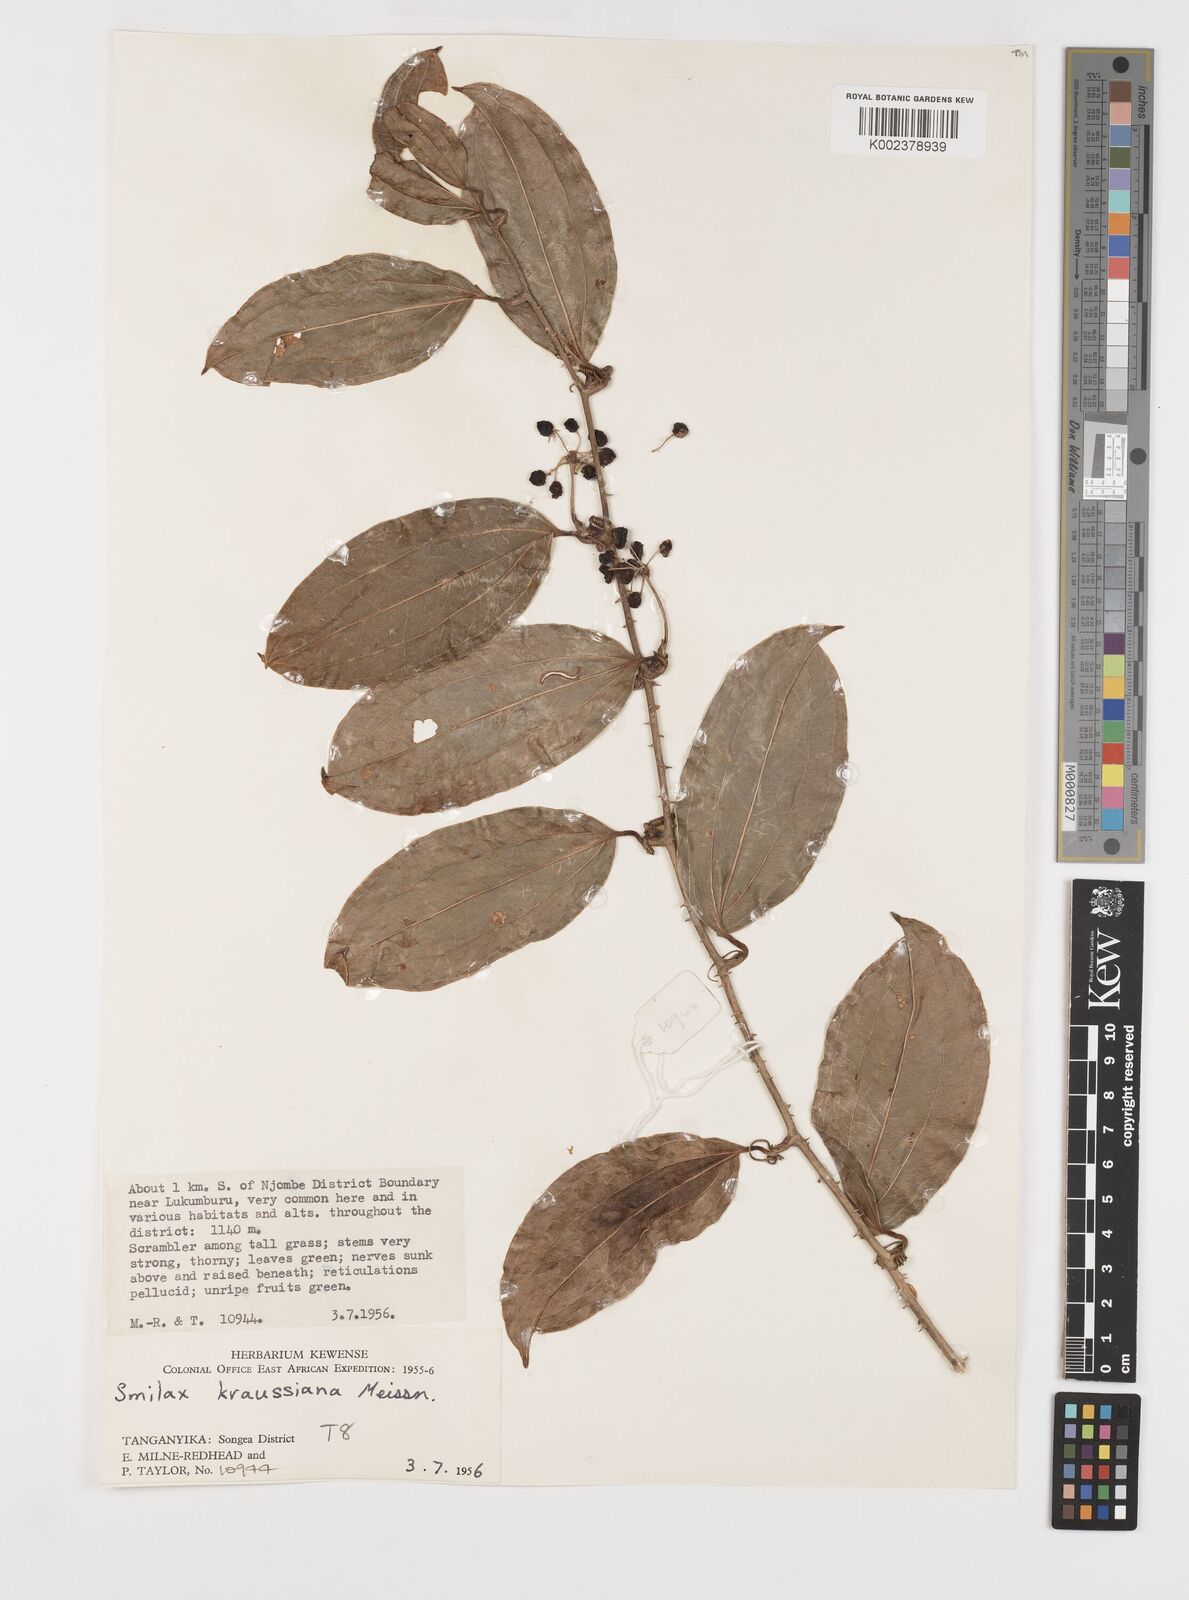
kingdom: Plantae
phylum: Tracheophyta
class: Liliopsida
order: Liliales
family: Smilacaceae
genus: Smilax
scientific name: Smilax anceps
